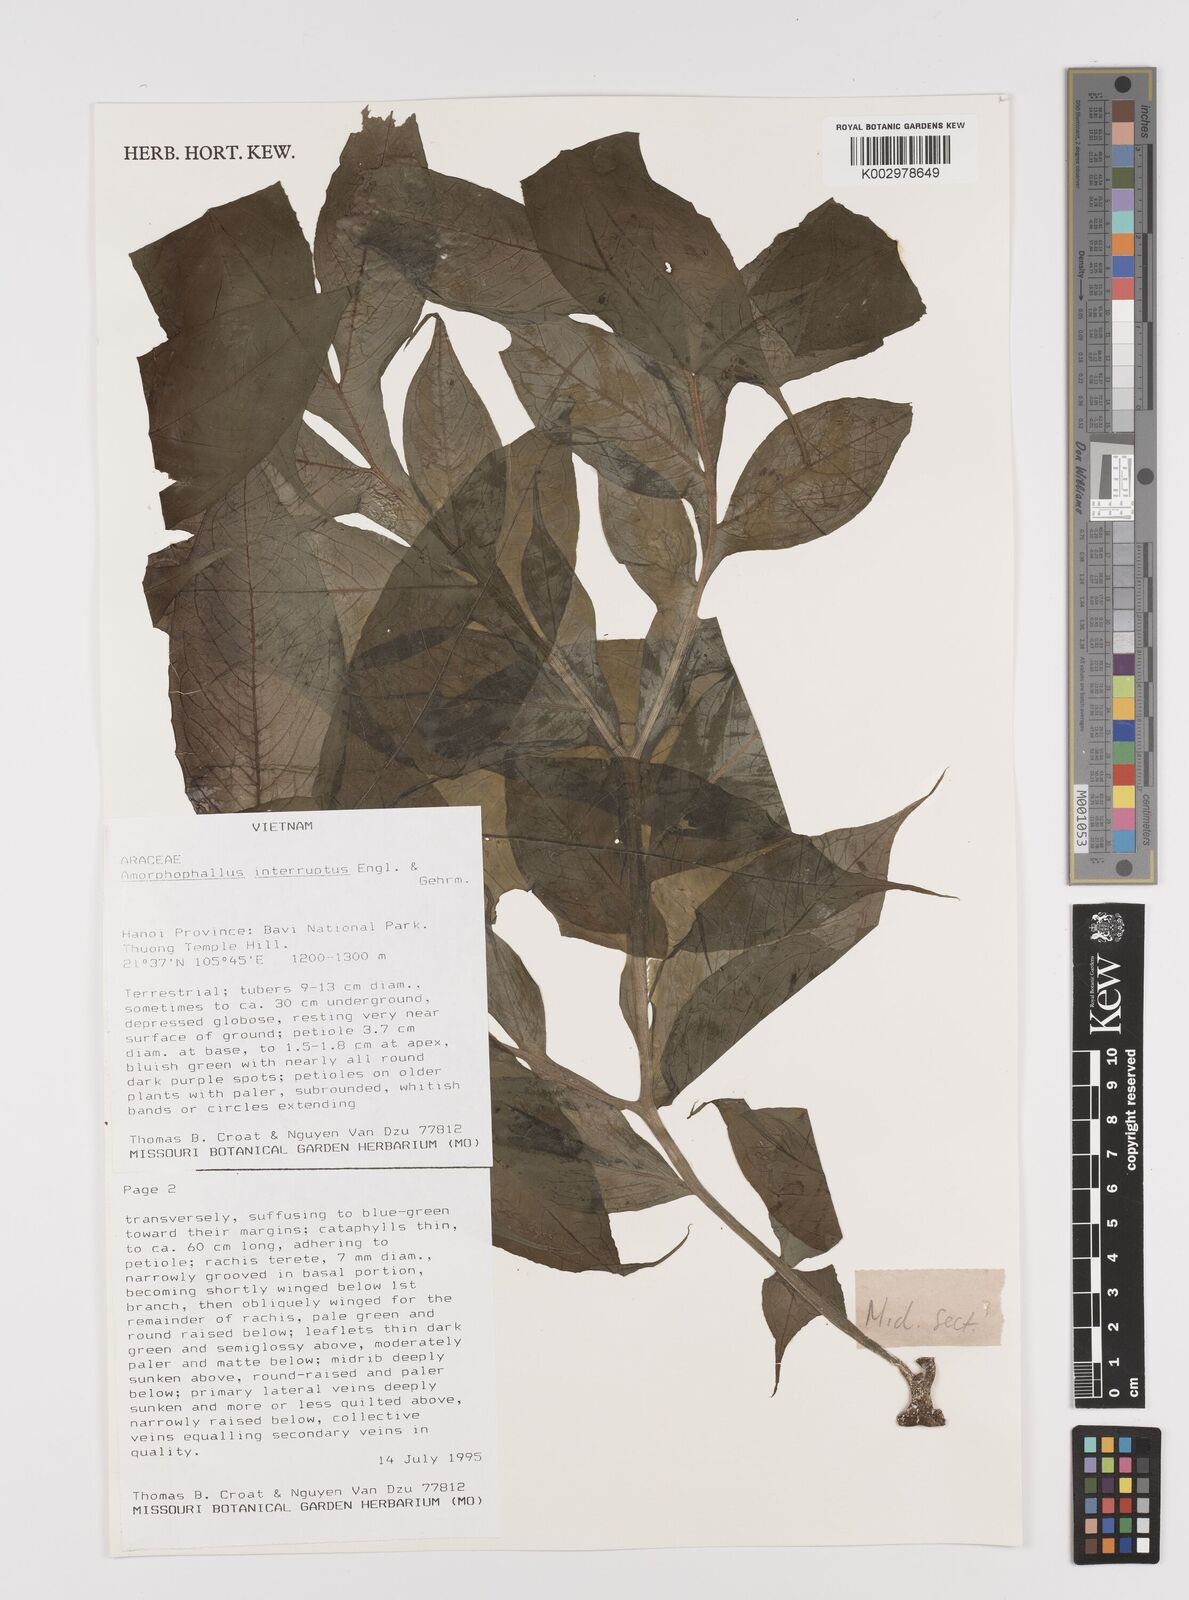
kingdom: Plantae
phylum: Tracheophyta
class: Liliopsida
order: Alismatales
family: Araceae
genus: Amorphophallus
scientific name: Amorphophallus interruptus
